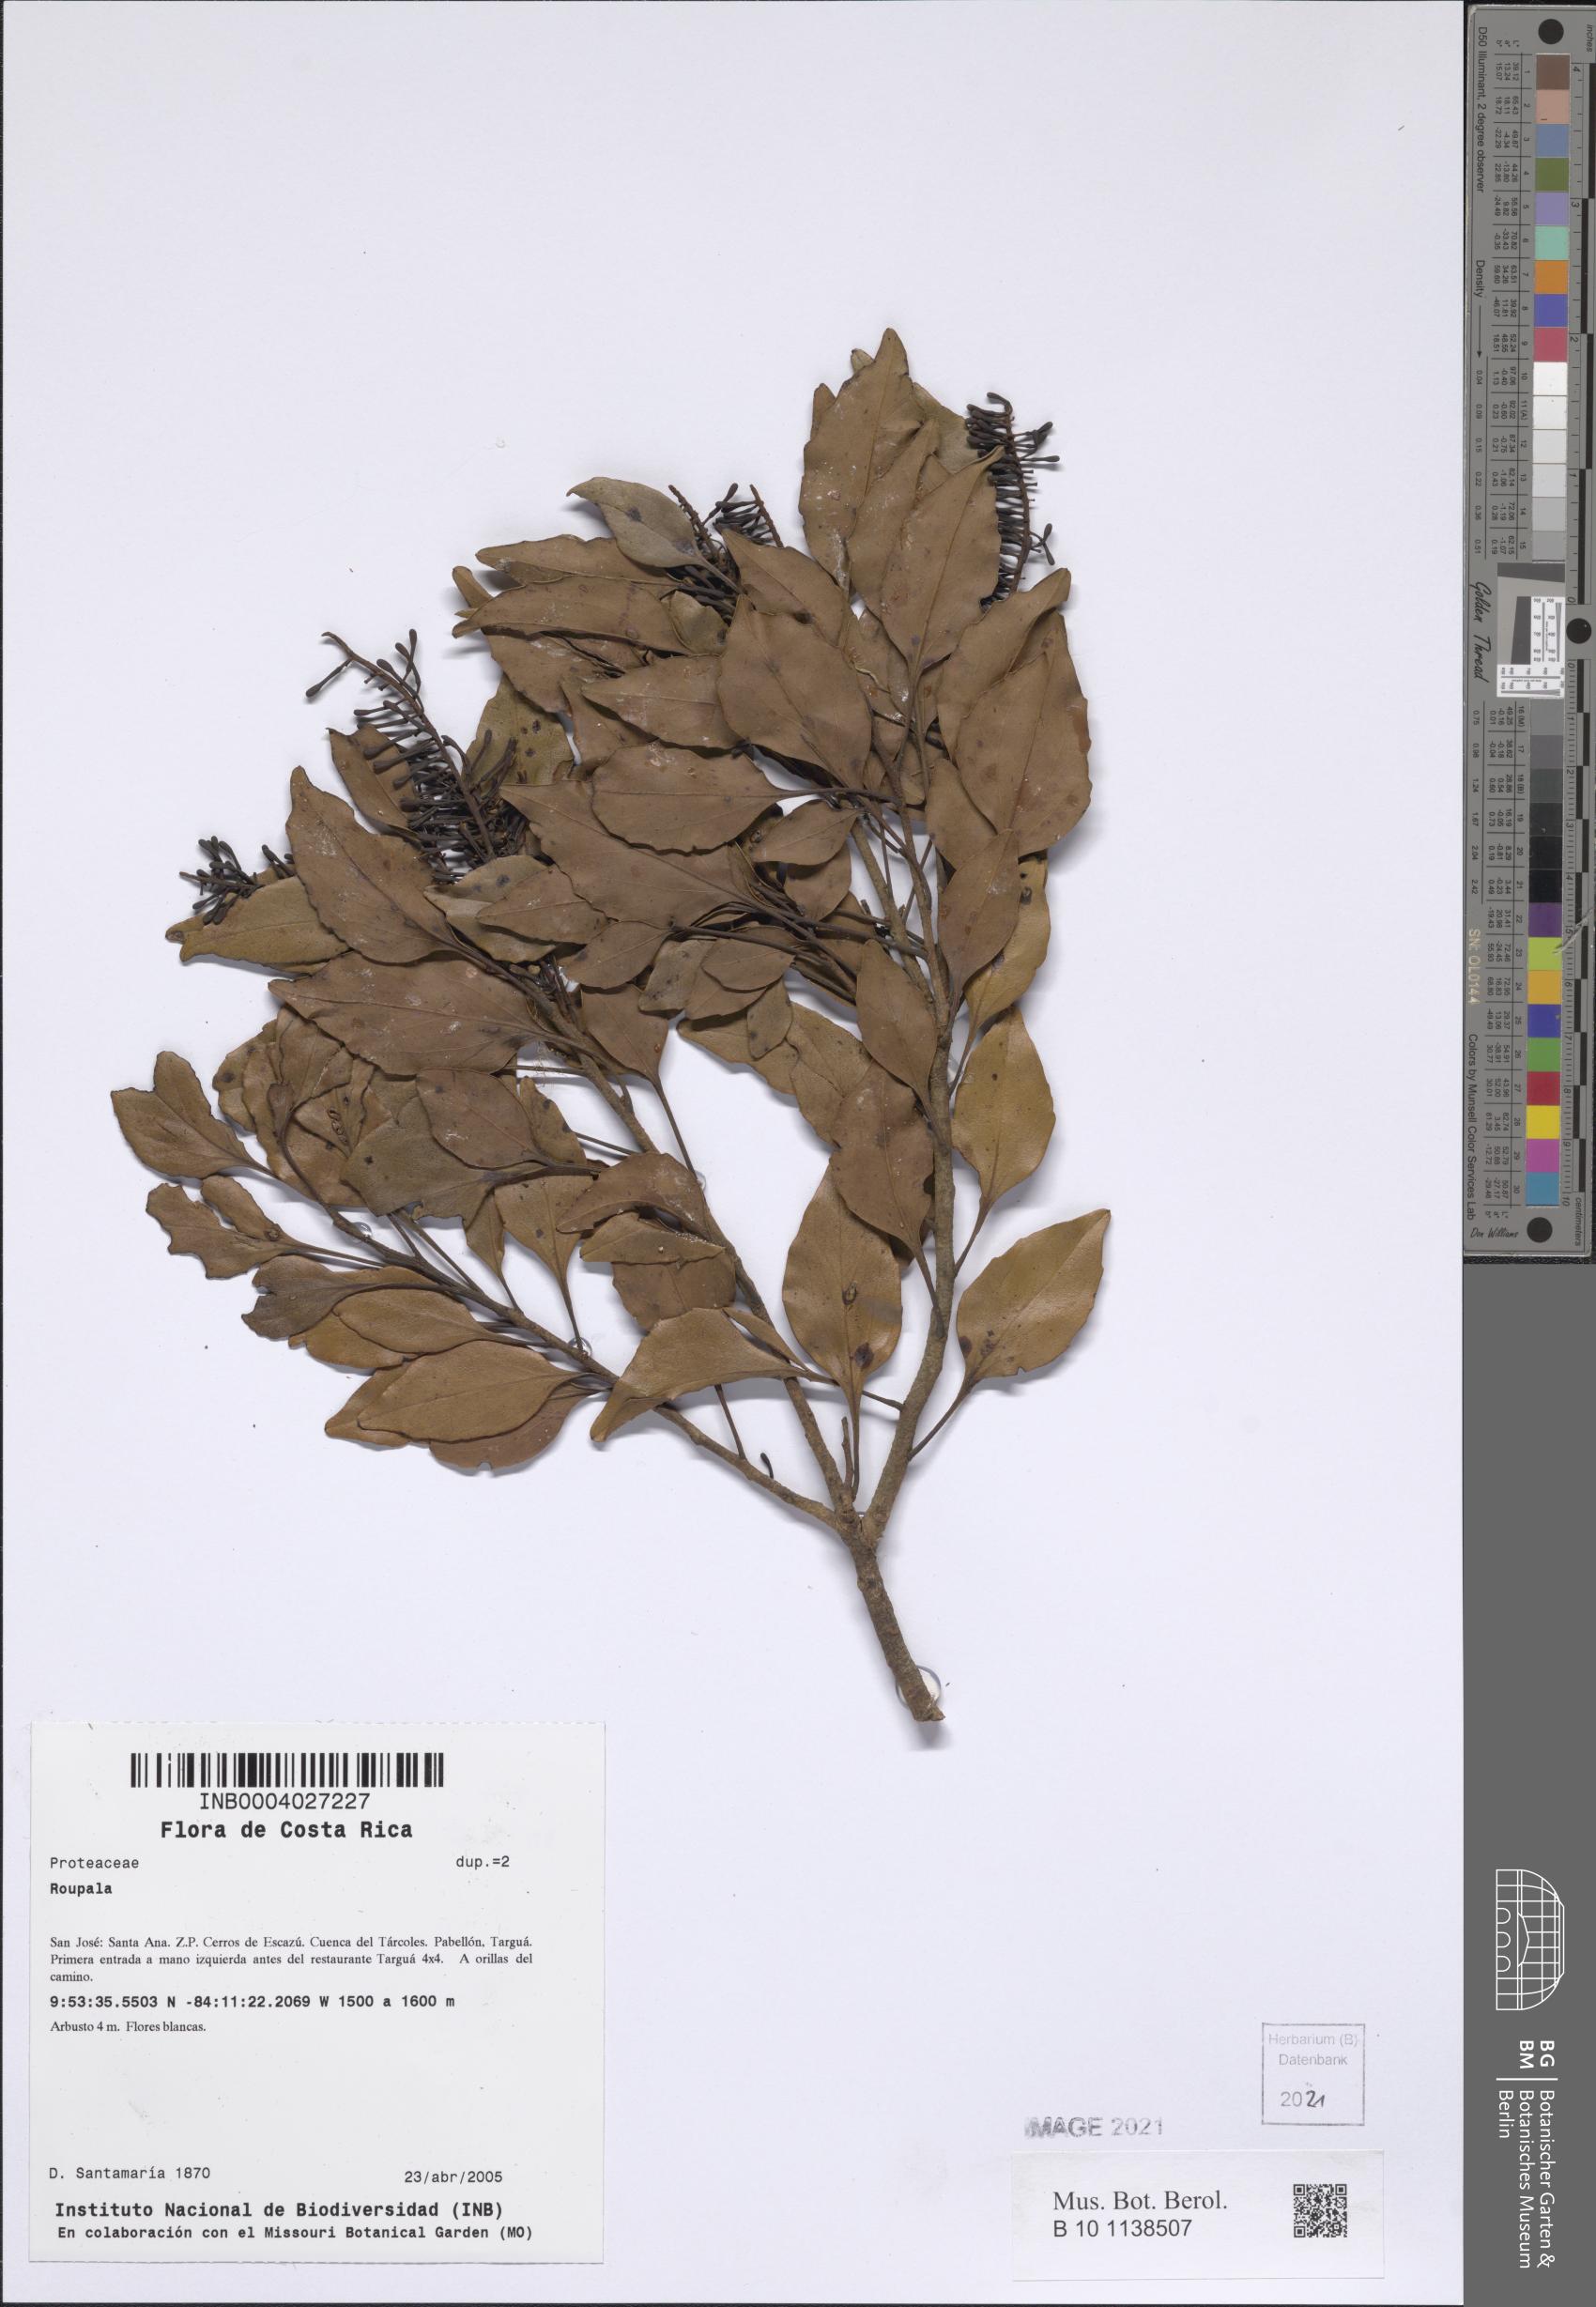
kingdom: Plantae
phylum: Tracheophyta
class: Magnoliopsida
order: Proteales
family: Proteaceae
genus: Roupala
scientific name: Roupala
